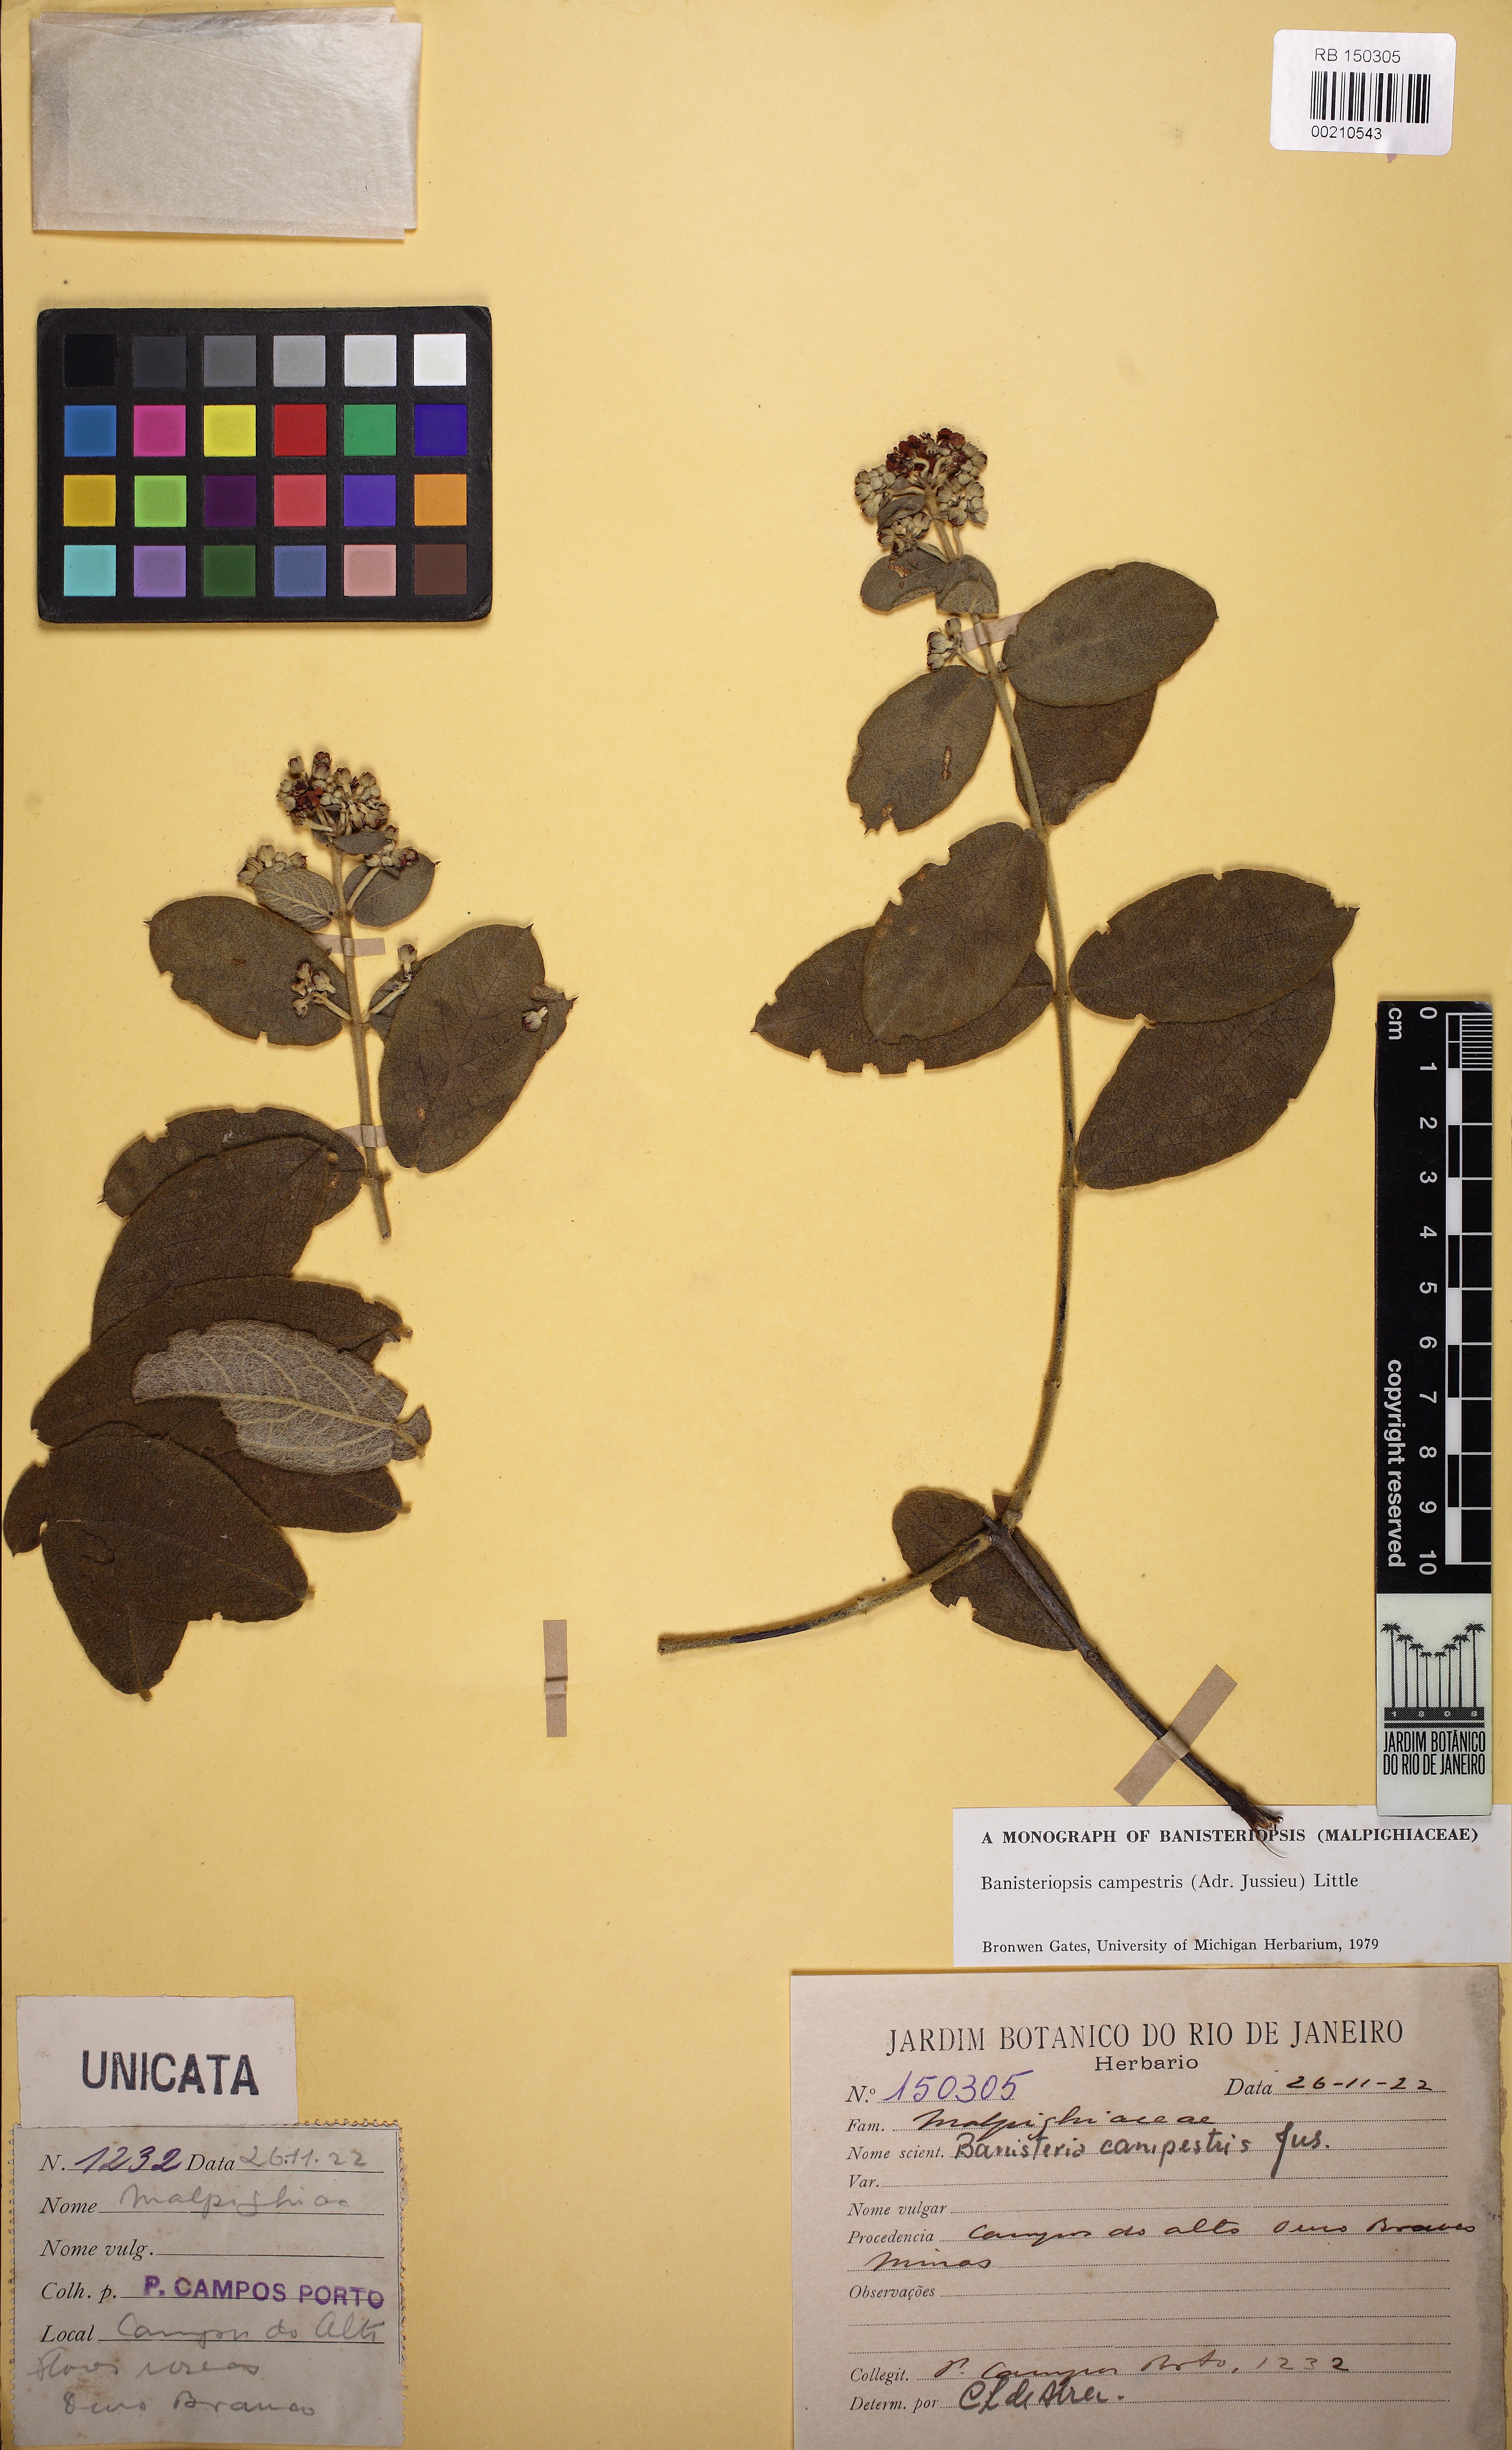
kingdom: Plantae
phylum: Tracheophyta
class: Magnoliopsida
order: Malpighiales
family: Malpighiaceae
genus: Banisteriopsis
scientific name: Banisteriopsis campestris
